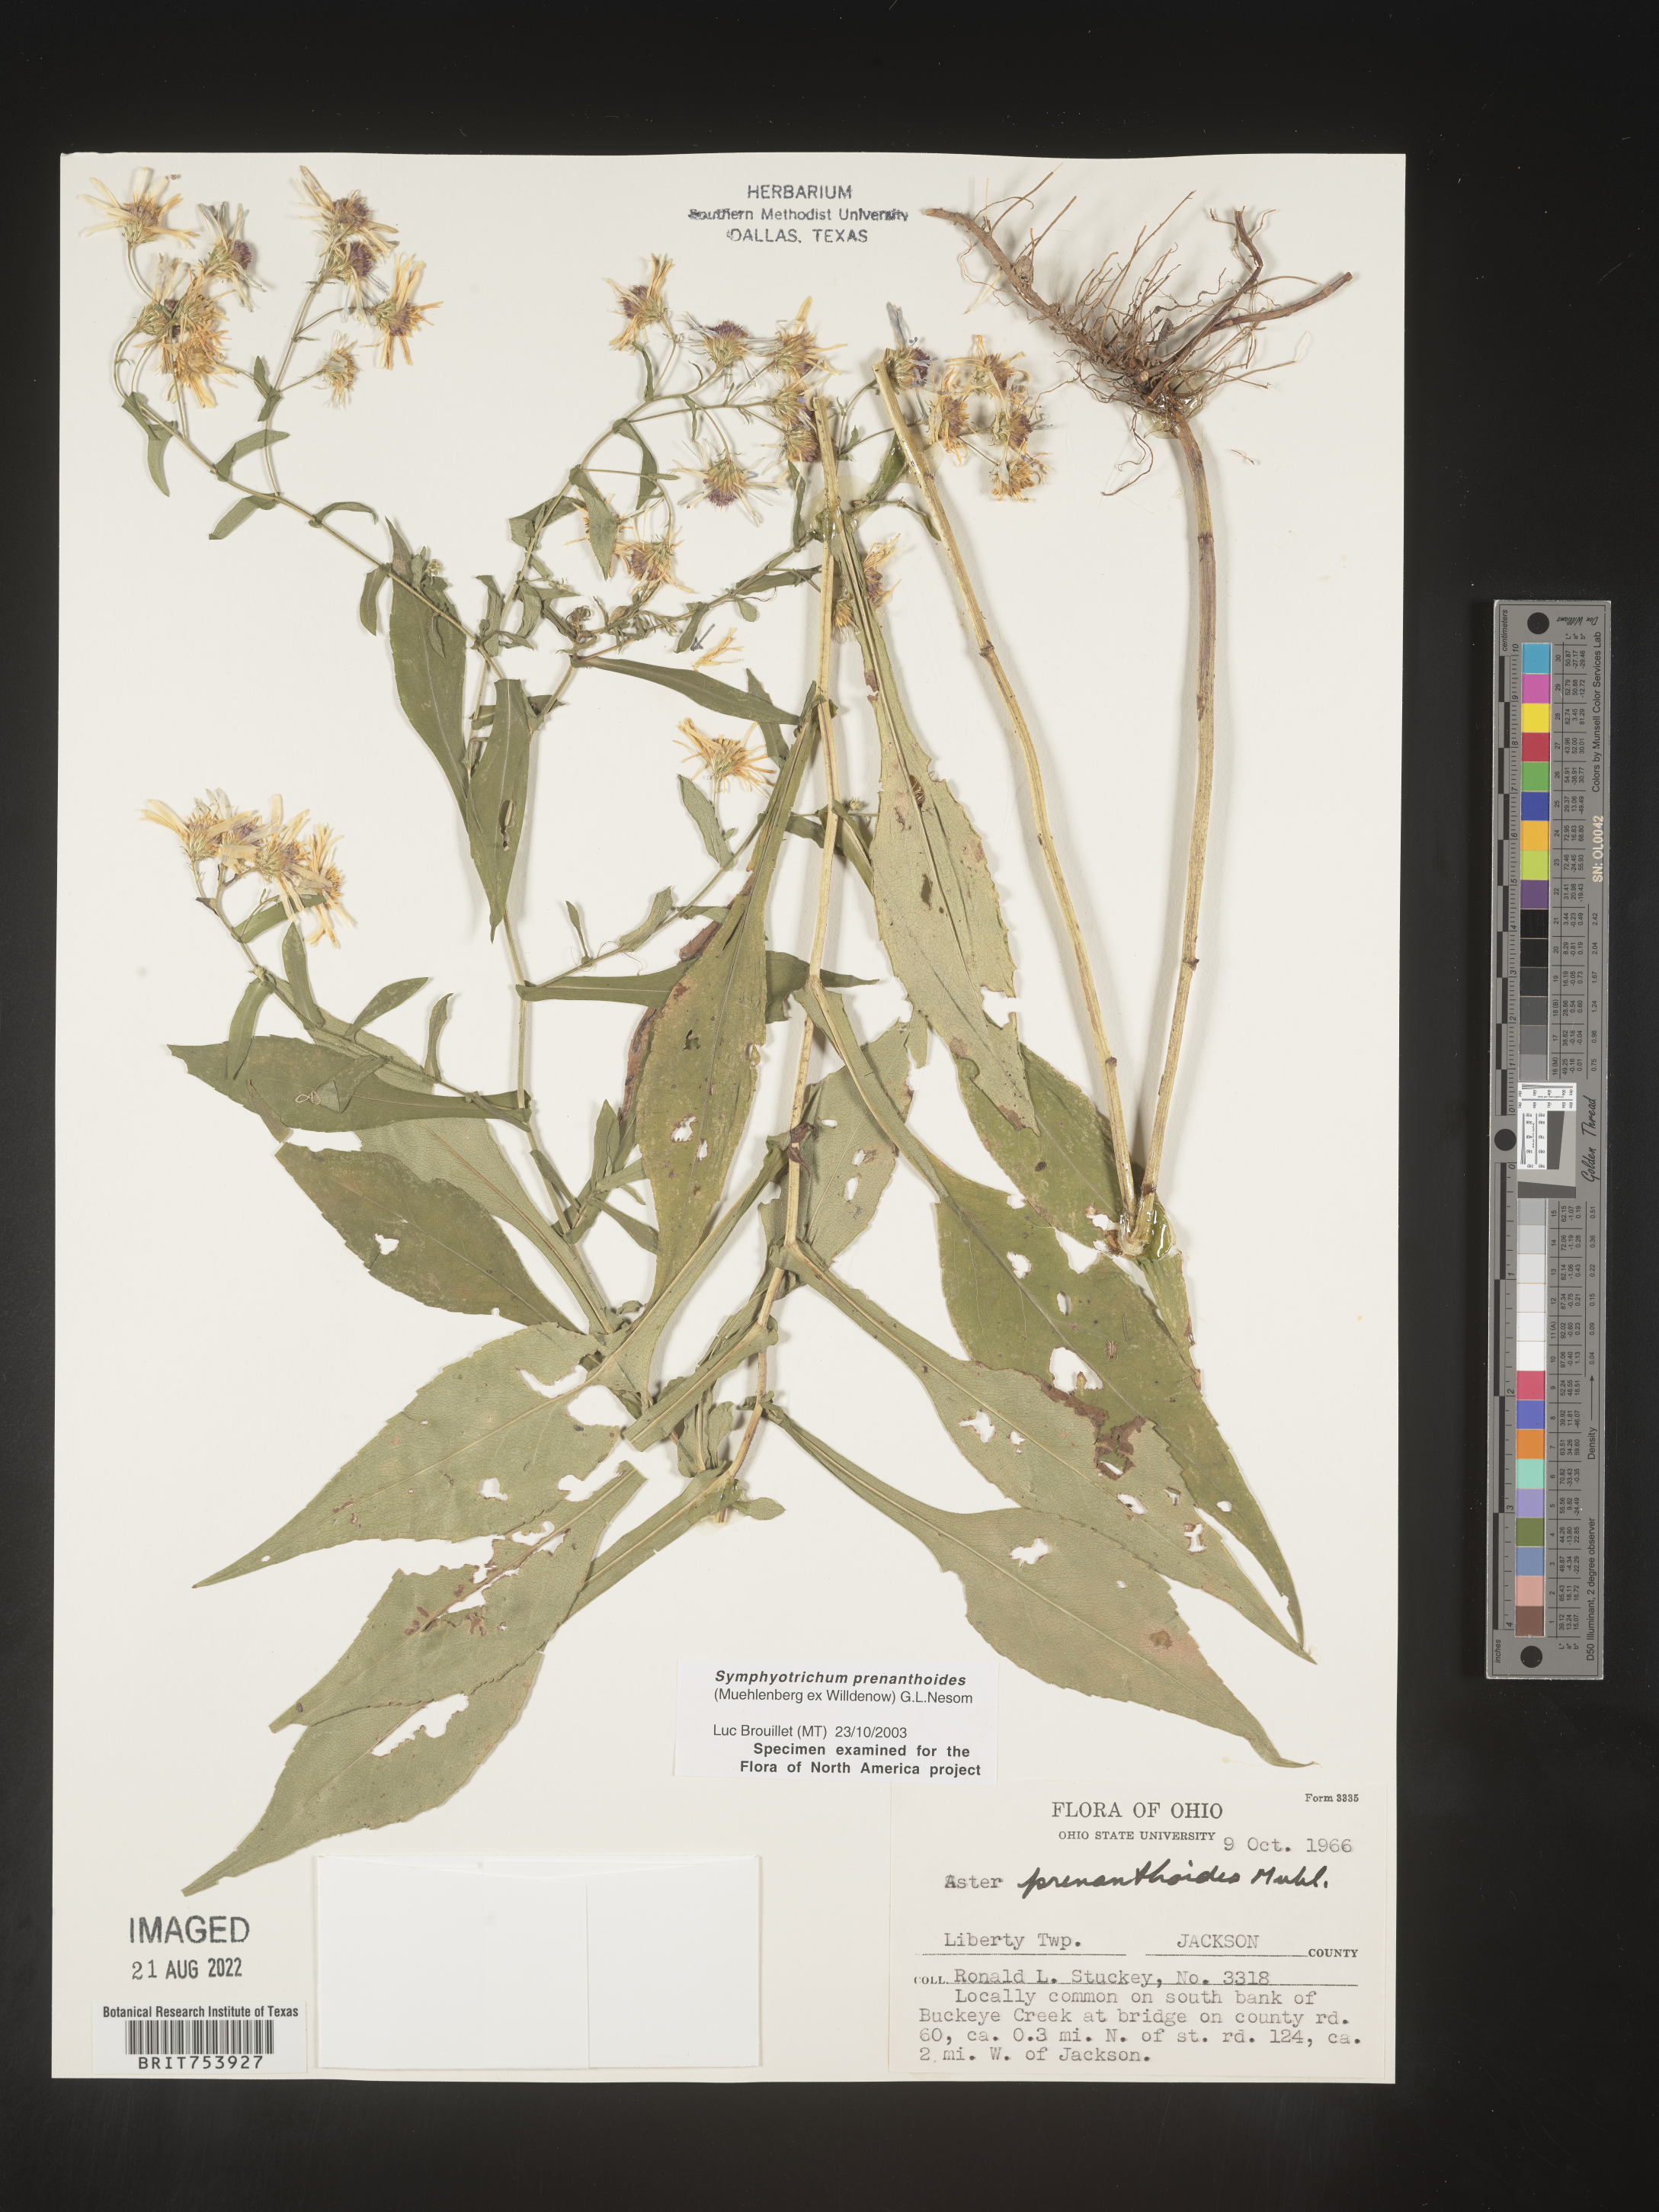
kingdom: Plantae
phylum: Tracheophyta
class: Magnoliopsida
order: Asterales
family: Asteraceae
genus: Symphyotrichum
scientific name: Symphyotrichum prenanthoides
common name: Crooked-stem aster
